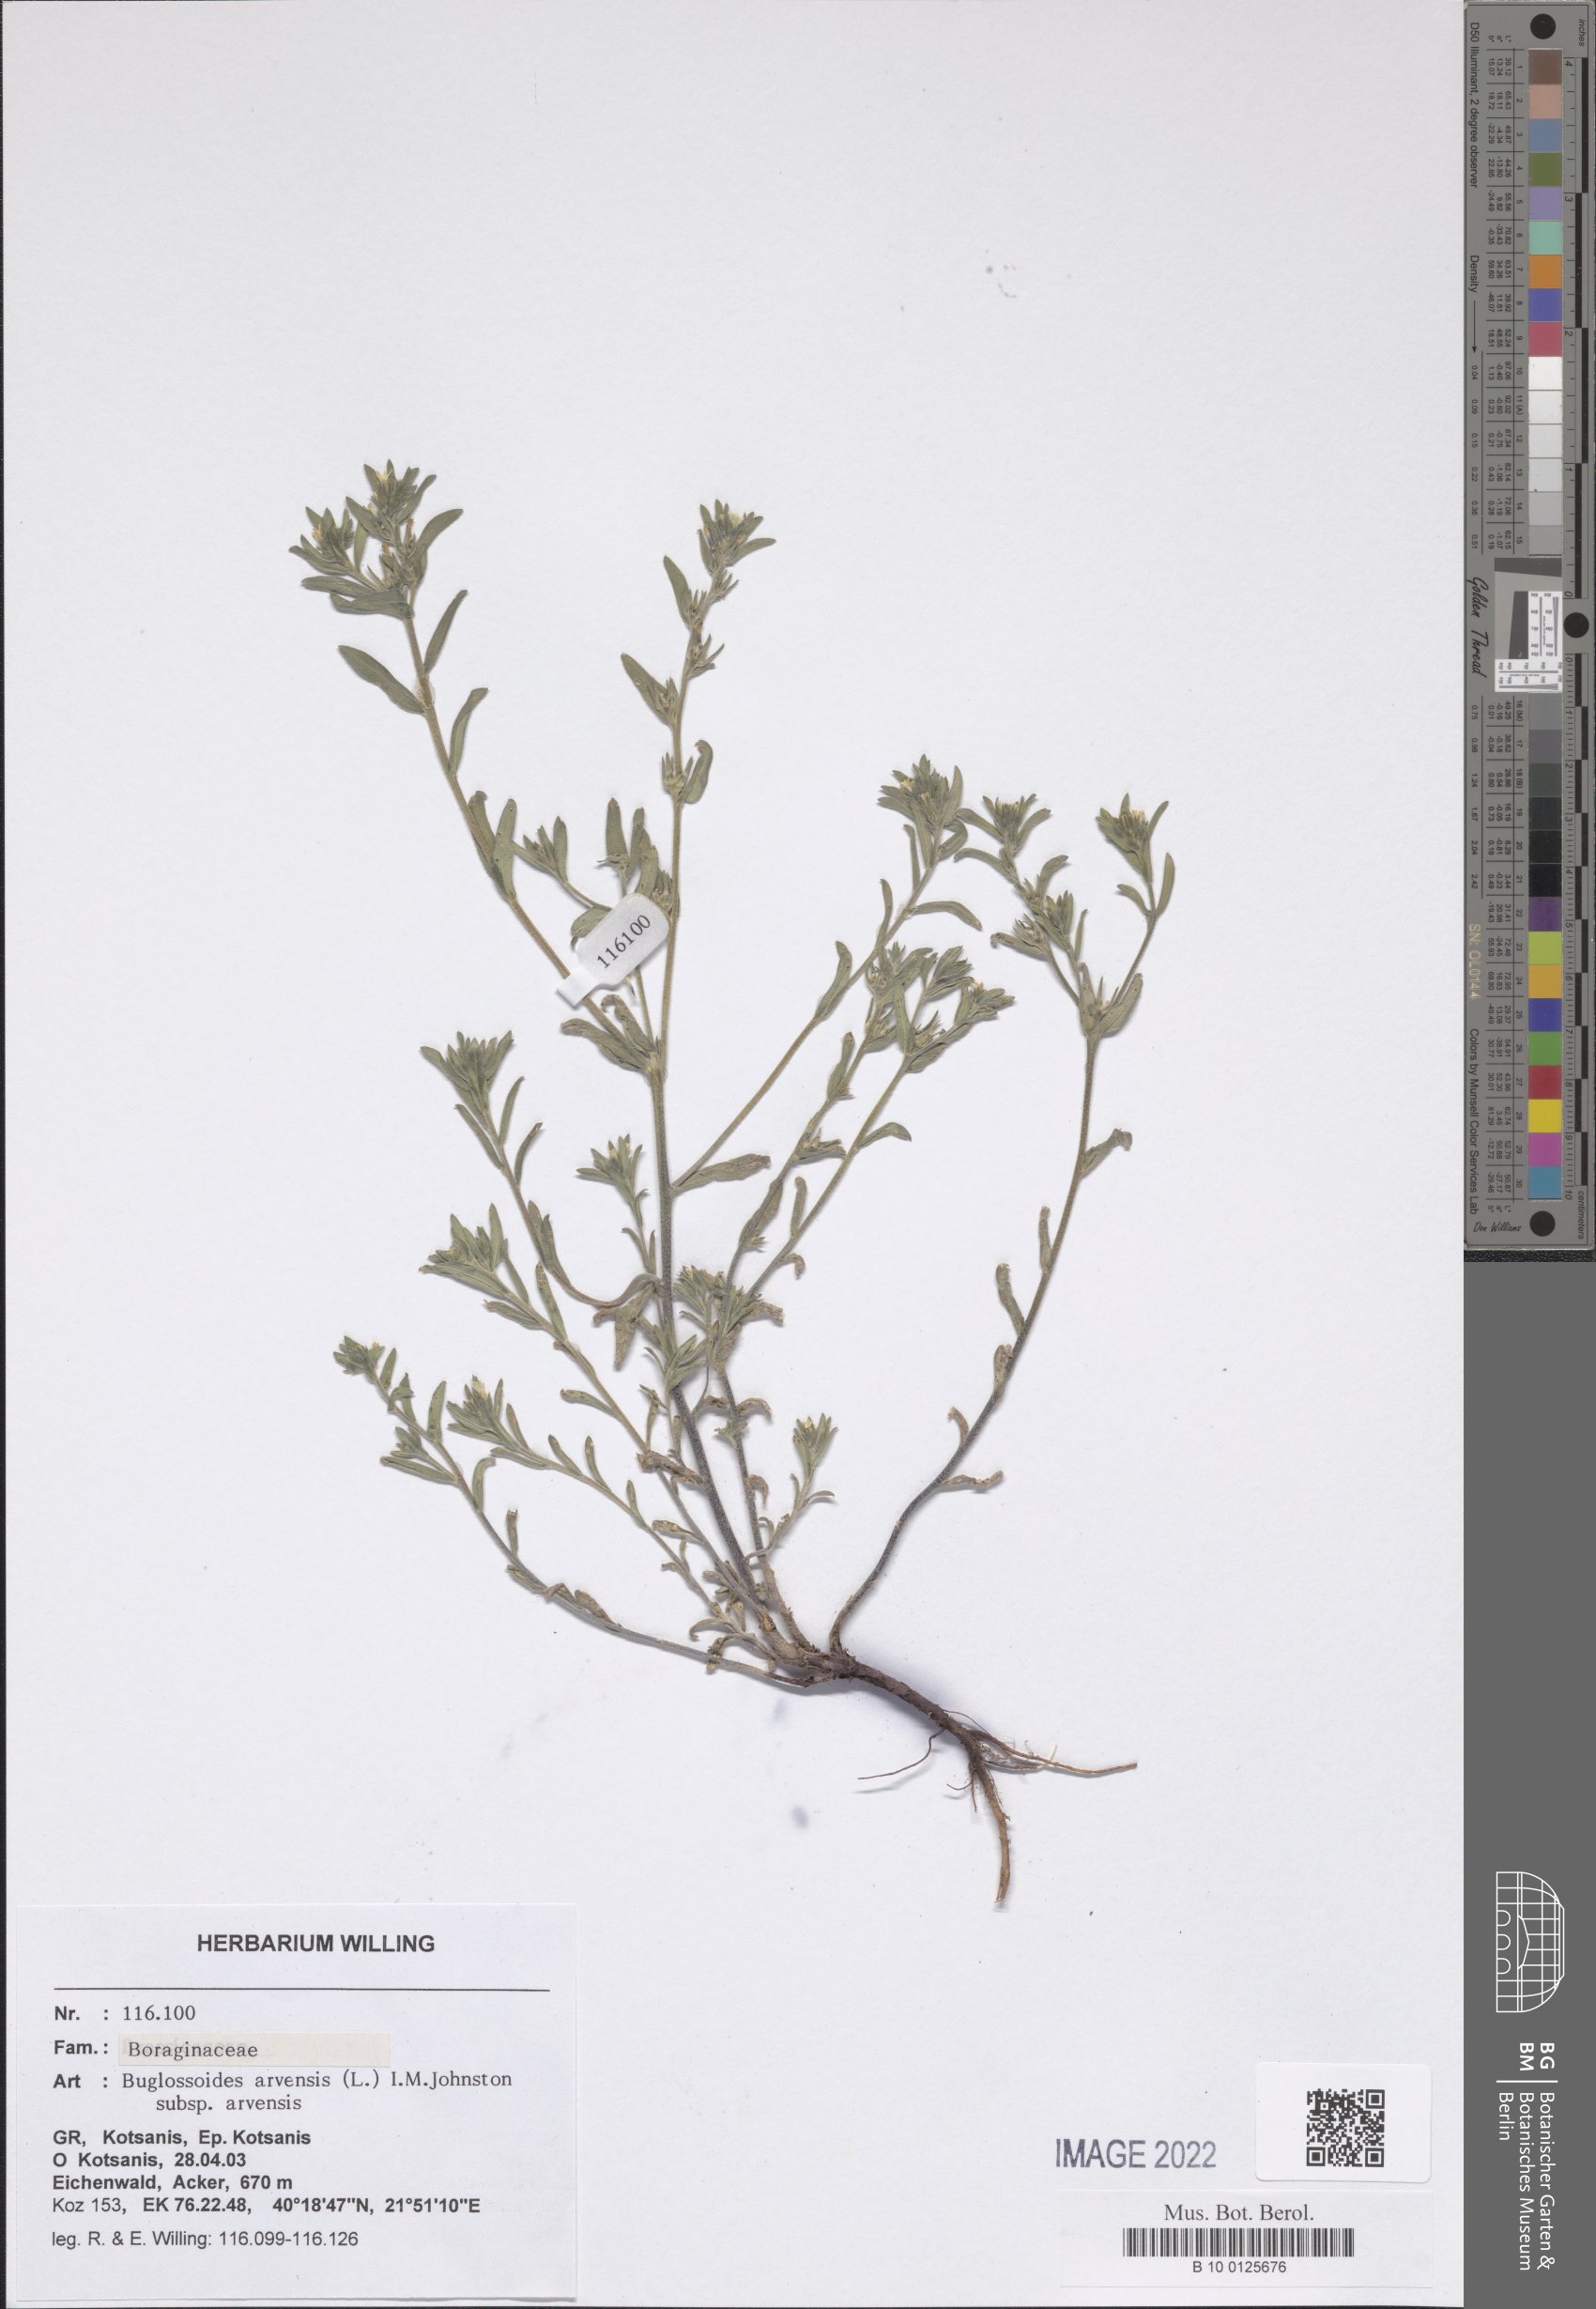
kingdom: Plantae
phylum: Tracheophyta
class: Magnoliopsida
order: Boraginales
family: Boraginaceae
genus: Buglossoides
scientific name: Buglossoides arvensis
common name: Corn gromwell
